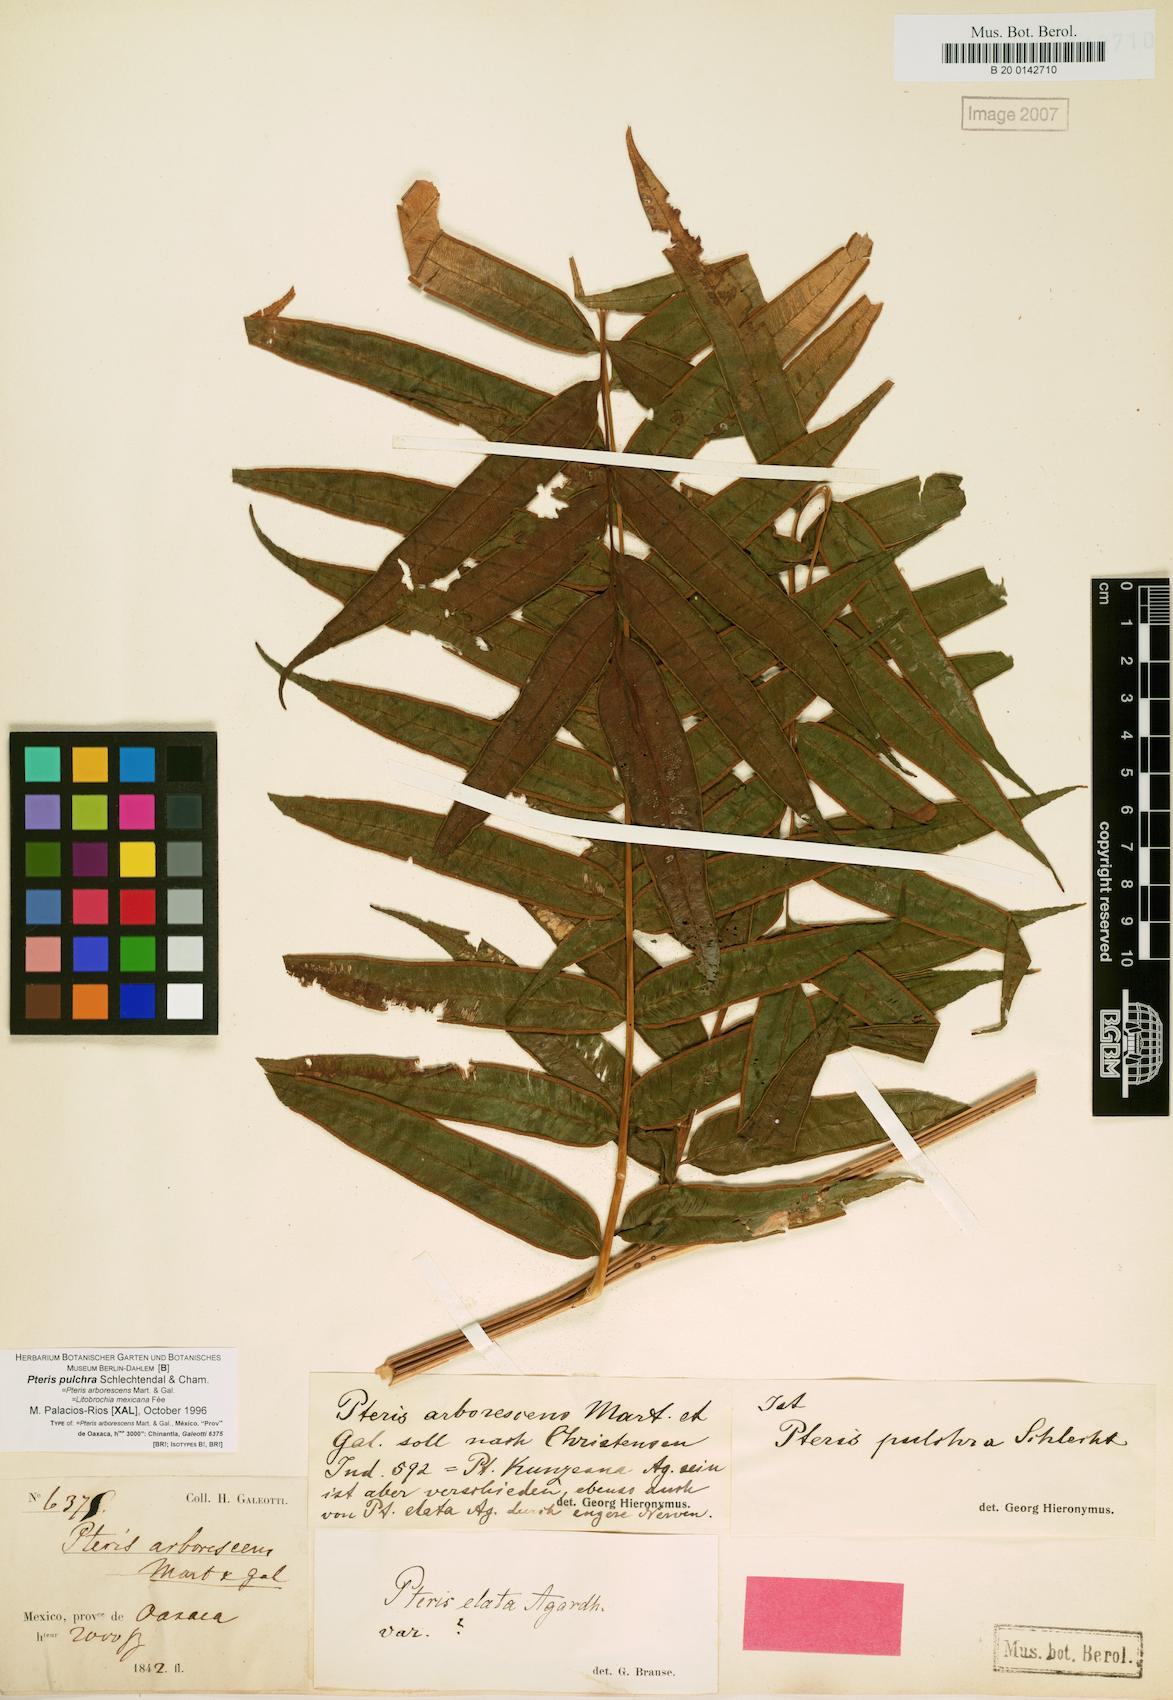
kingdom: Plantae
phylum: Tracheophyta
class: Polypodiopsida
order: Polypodiales
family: Pteridaceae
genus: Pteris
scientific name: Pteris pulchra
